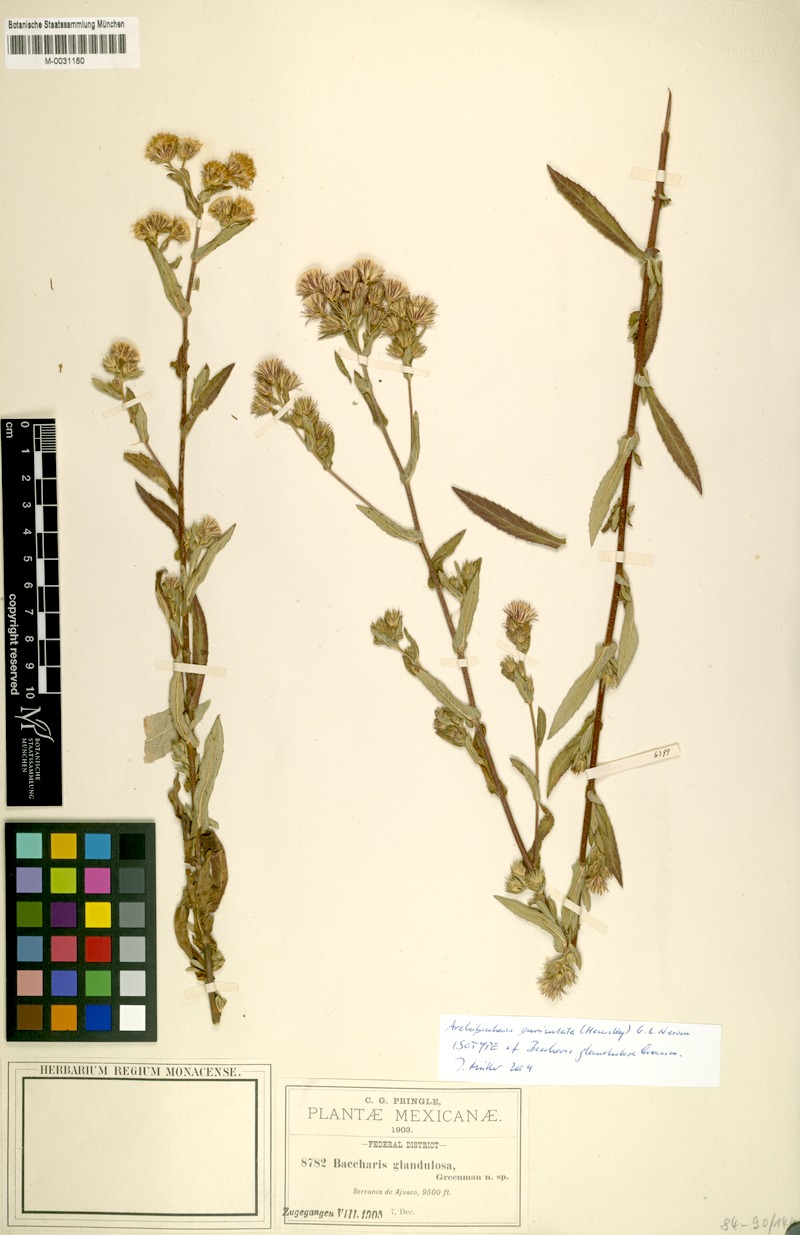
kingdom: Plantae
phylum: Tracheophyta
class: Magnoliopsida
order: Asterales
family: Asteraceae
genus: Archibaccharis
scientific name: Archibaccharis auriculata
